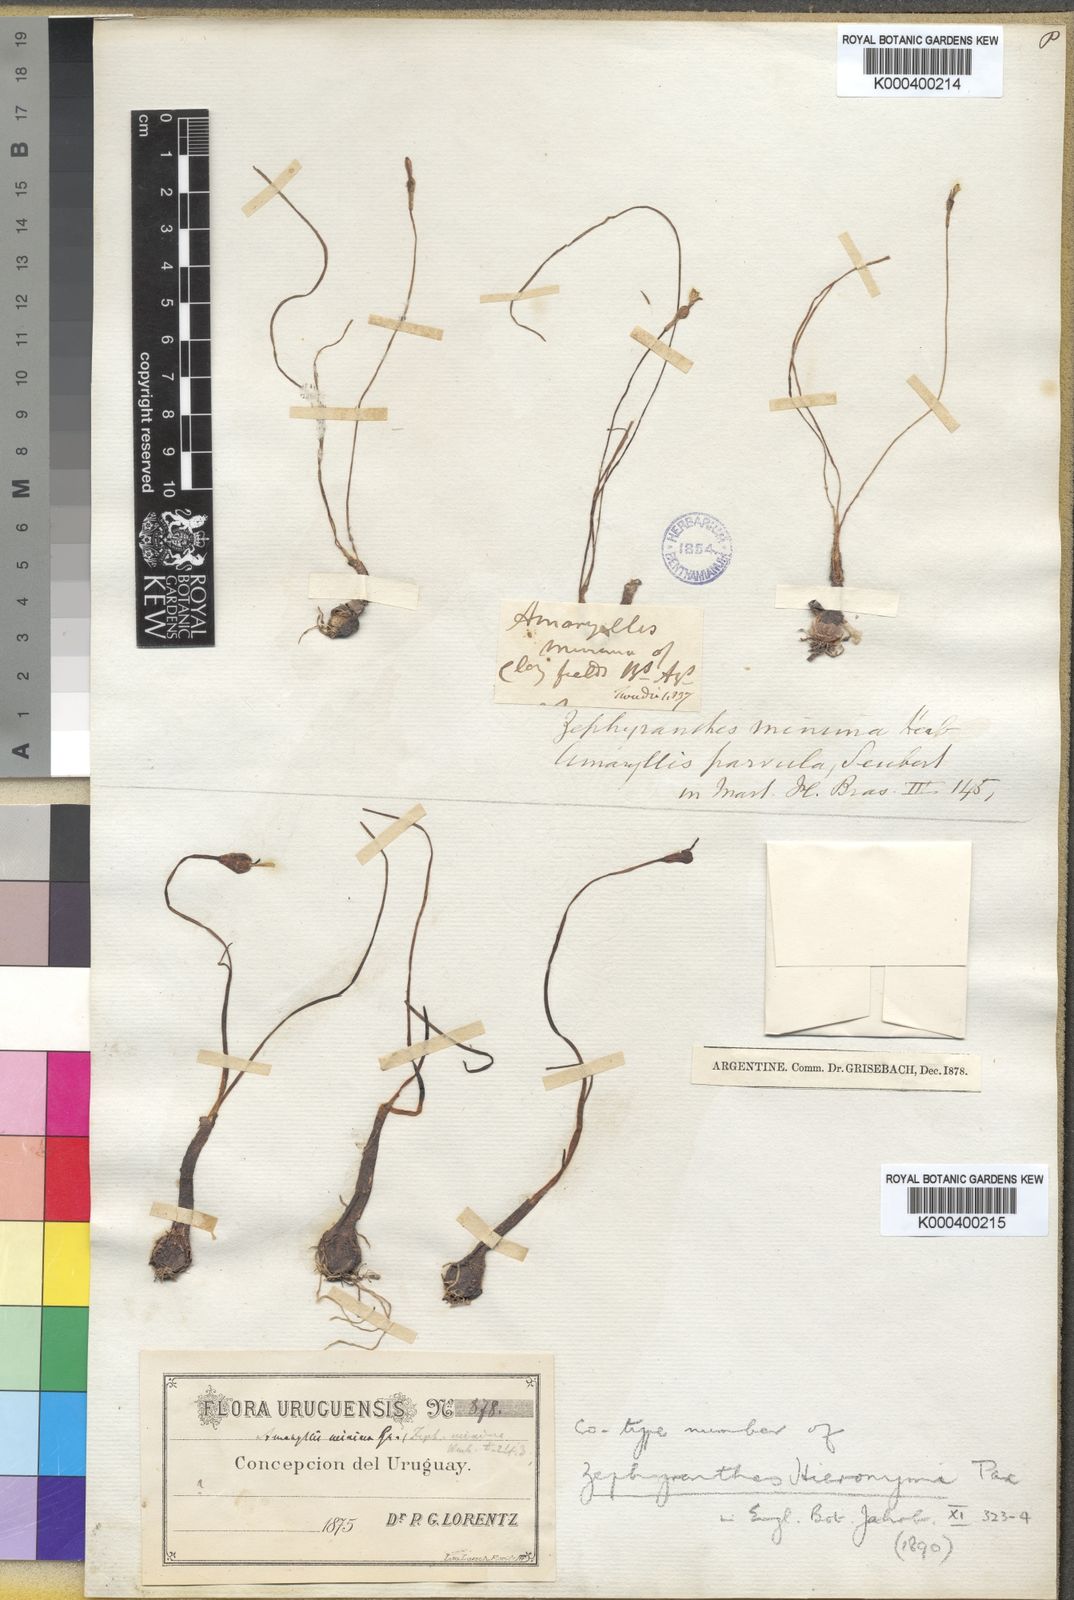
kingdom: Plantae
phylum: Tracheophyta
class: Liliopsida
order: Asparagales
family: Amaryllidaceae
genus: Zephyranthes
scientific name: Zephyranthes minima
